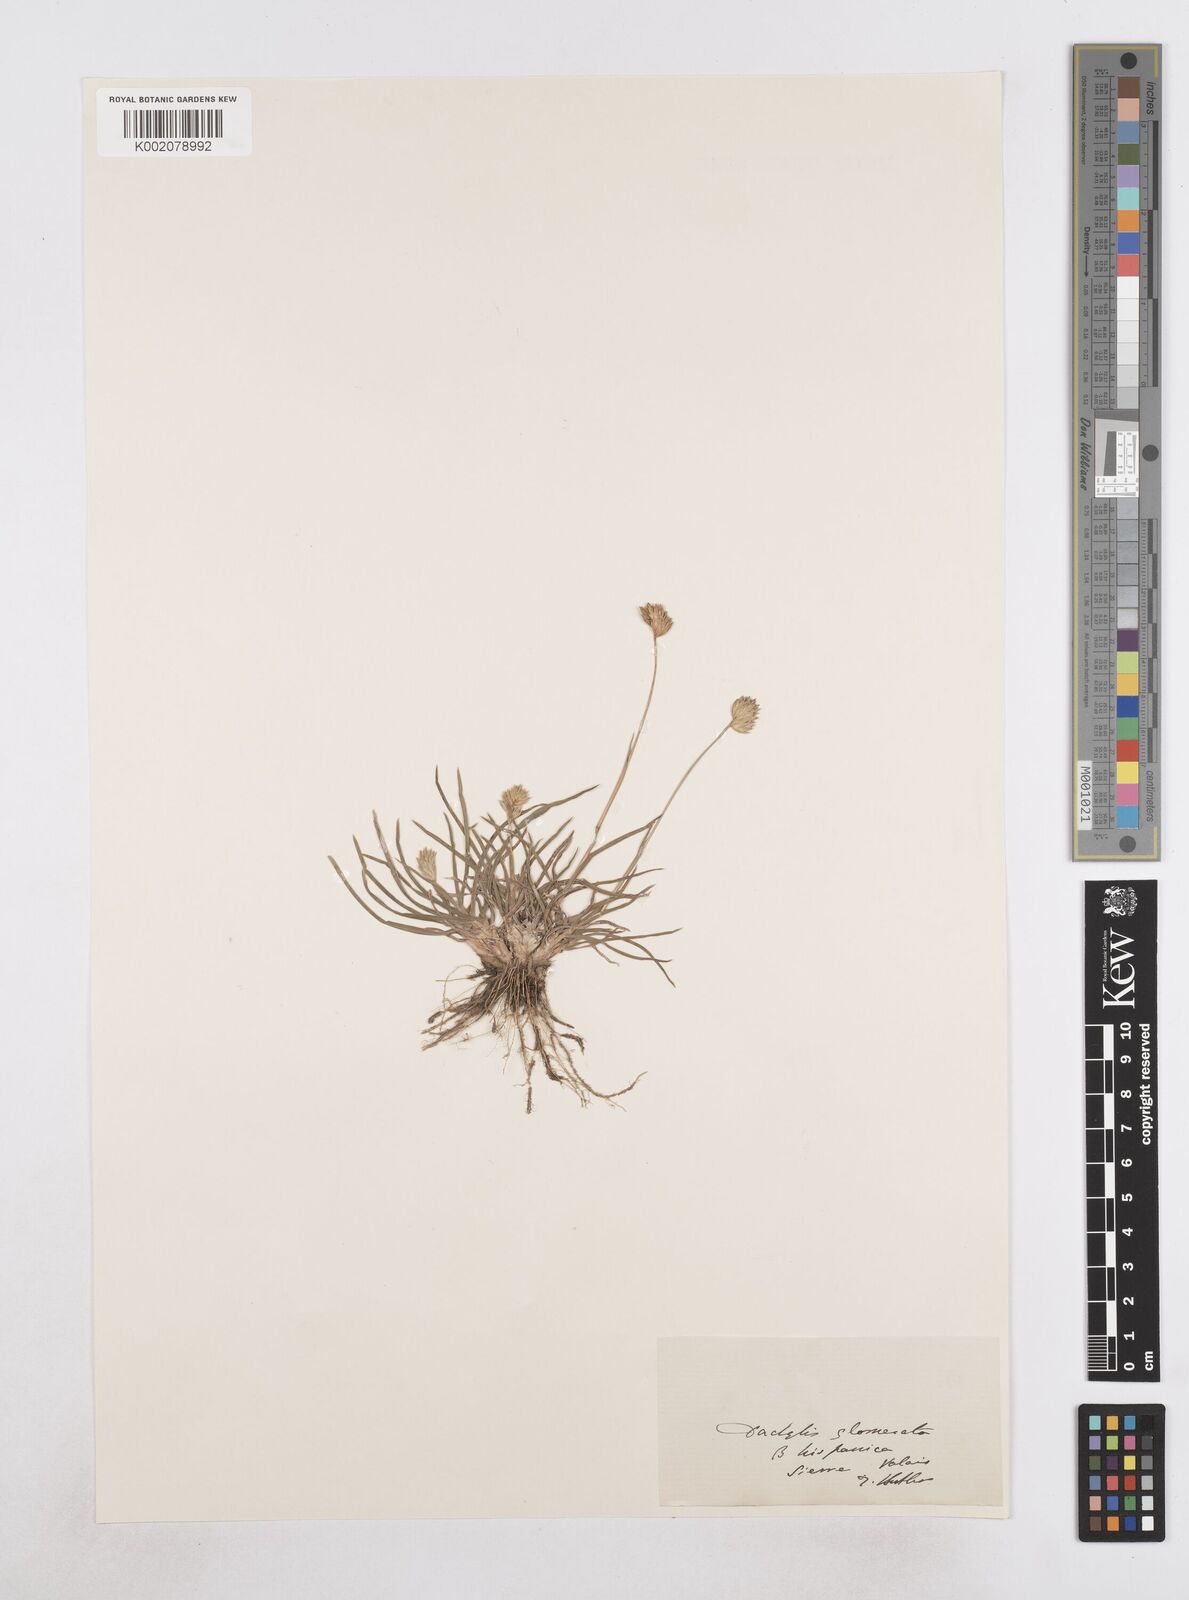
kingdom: Plantae
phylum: Tracheophyta
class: Liliopsida
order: Poales
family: Poaceae
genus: Dactylis
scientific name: Dactylis glomerata
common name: Orchardgrass
